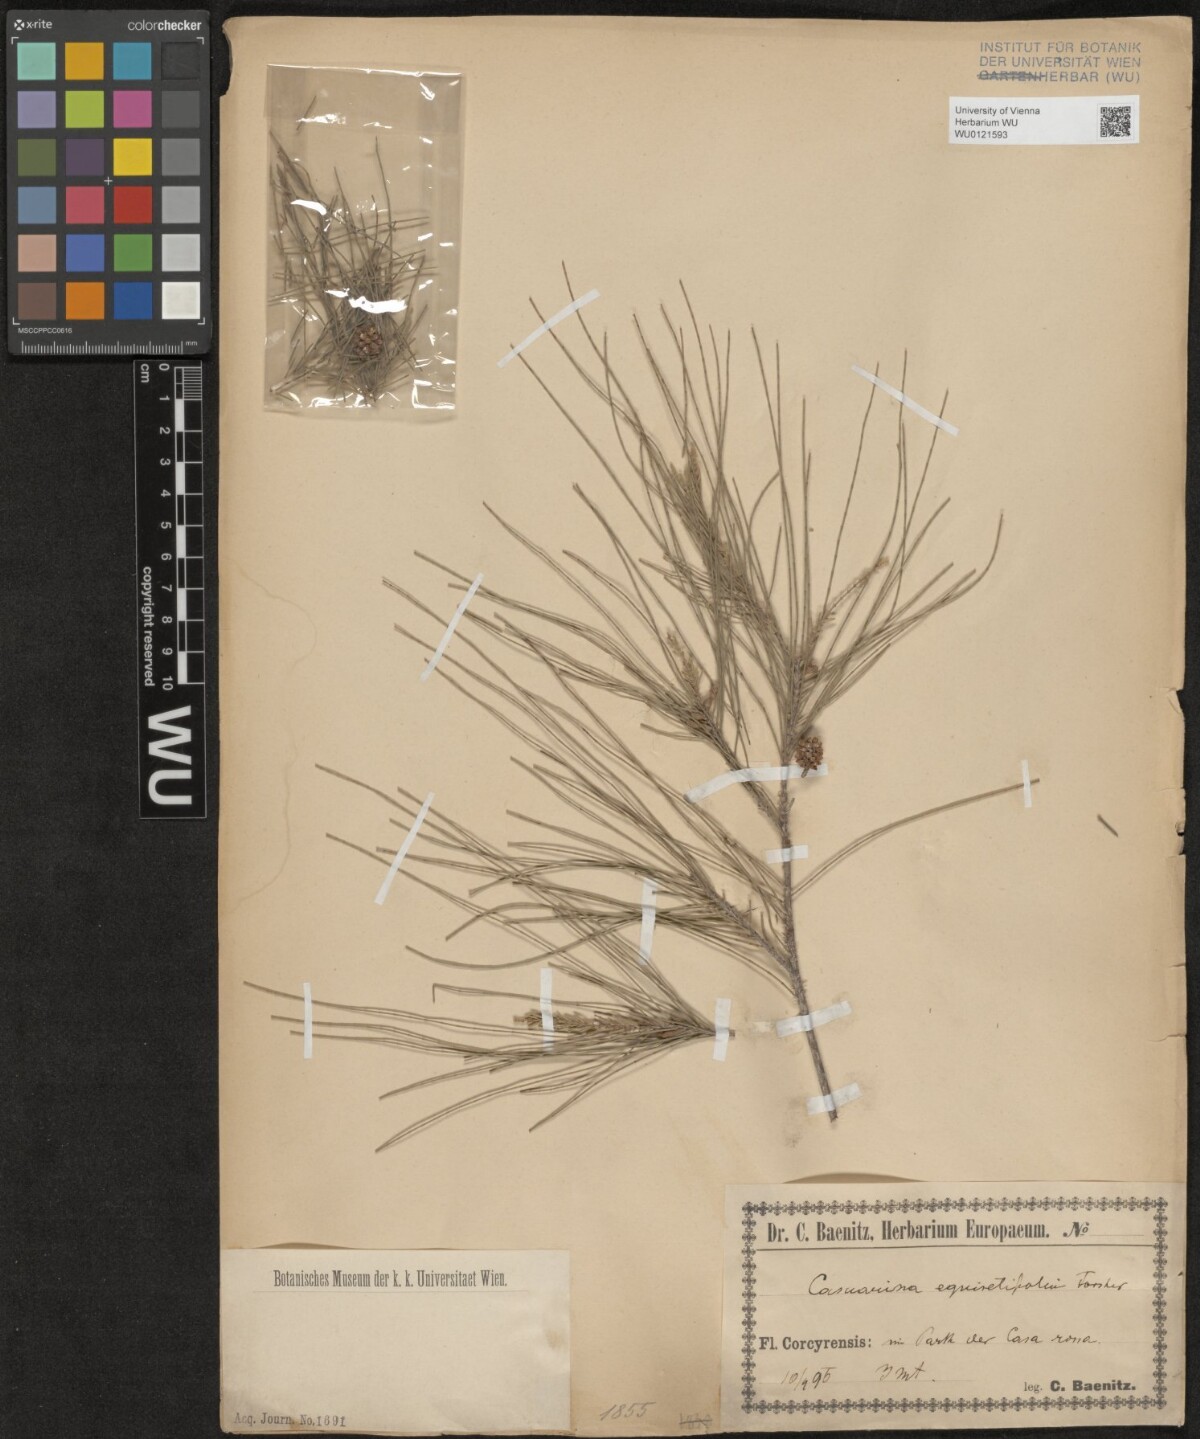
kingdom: Plantae
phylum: Tracheophyta
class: Magnoliopsida
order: Fagales
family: Casuarinaceae
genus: Casuarina
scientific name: Casuarina equisetifolia
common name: Beach sheoak
